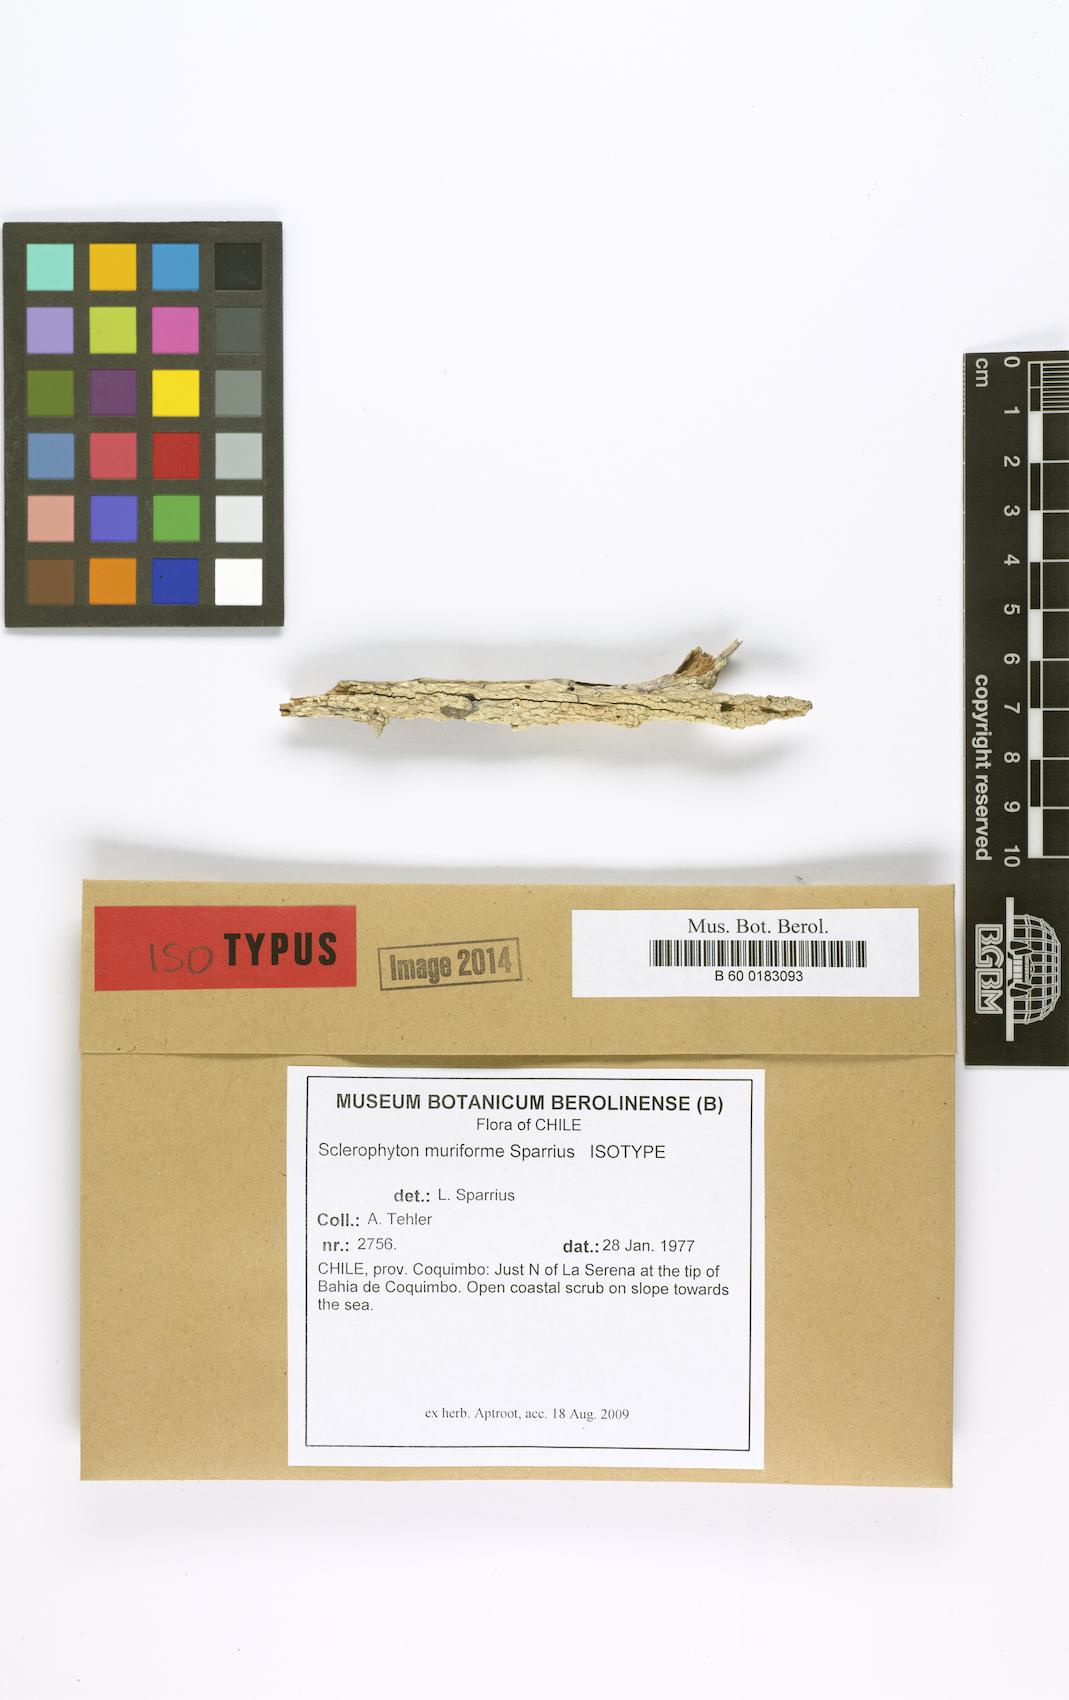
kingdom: Fungi
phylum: Ascomycota
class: Arthoniomycetes
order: Arthoniales
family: Roccellographaceae
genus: Roccellographa
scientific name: Roccellographa muriformis
